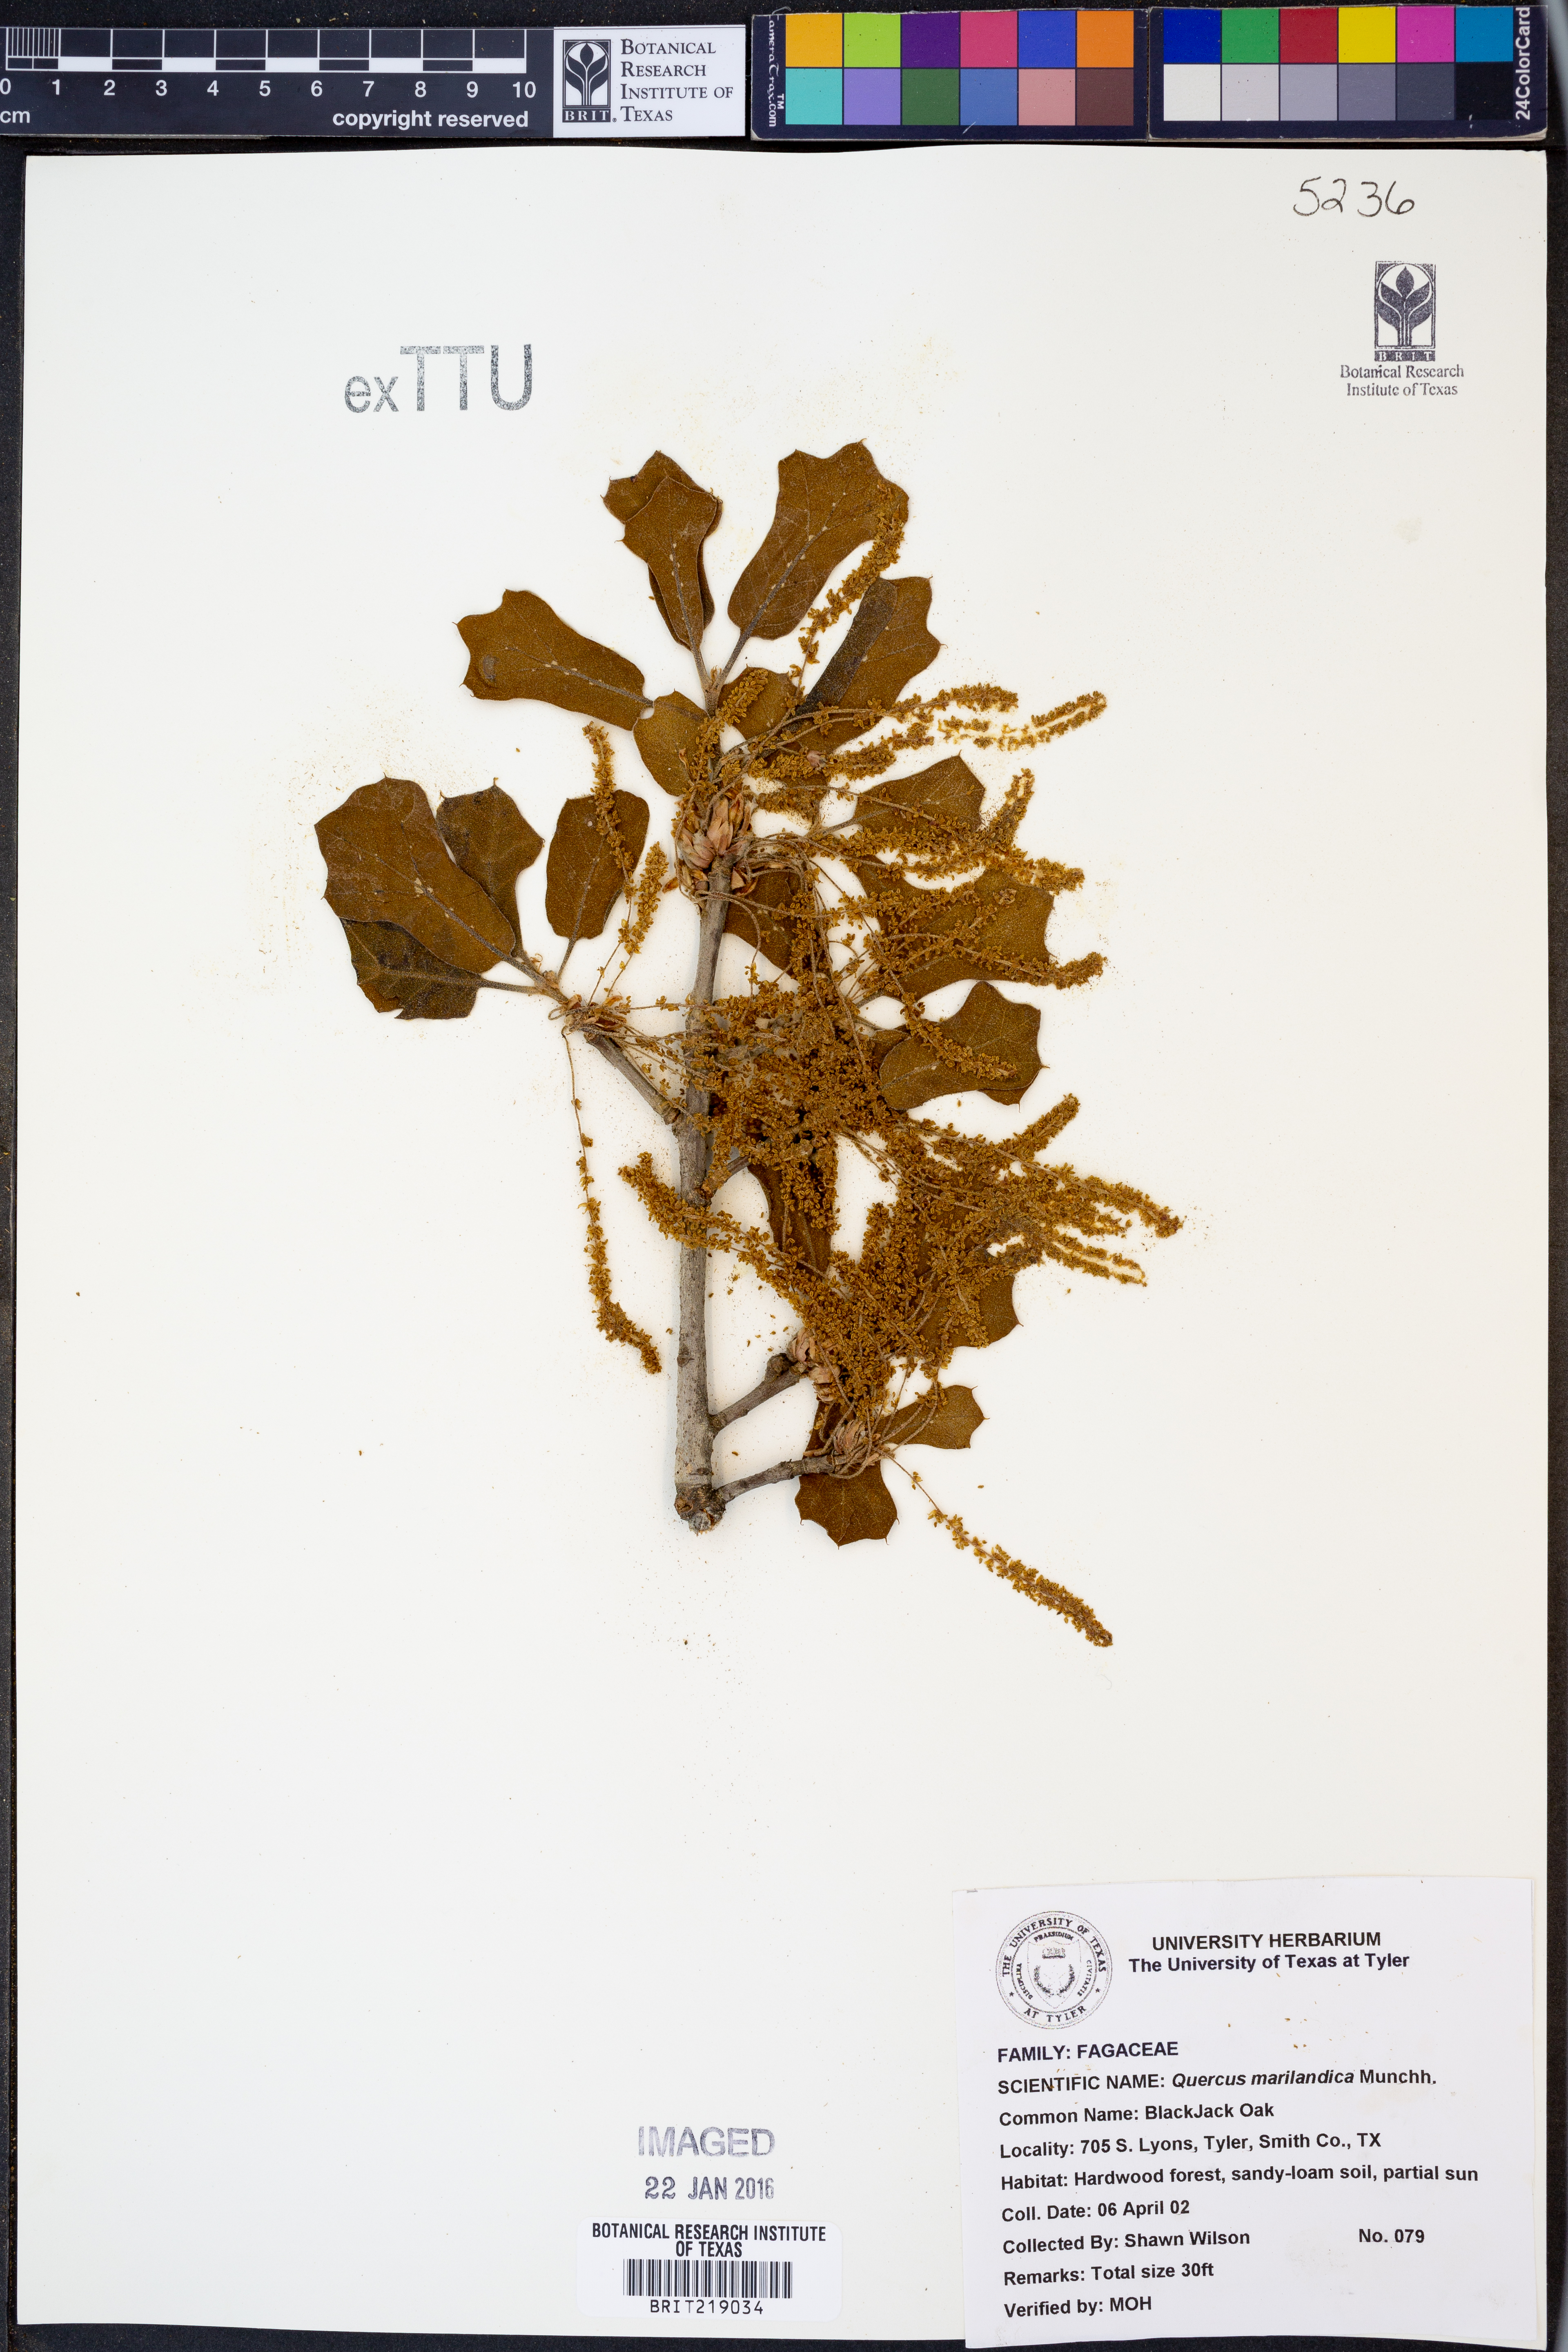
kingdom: Plantae
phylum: Tracheophyta
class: Magnoliopsida
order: Fagales
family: Fagaceae
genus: Quercus
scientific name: Quercus marilandica
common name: Blackjack oak
